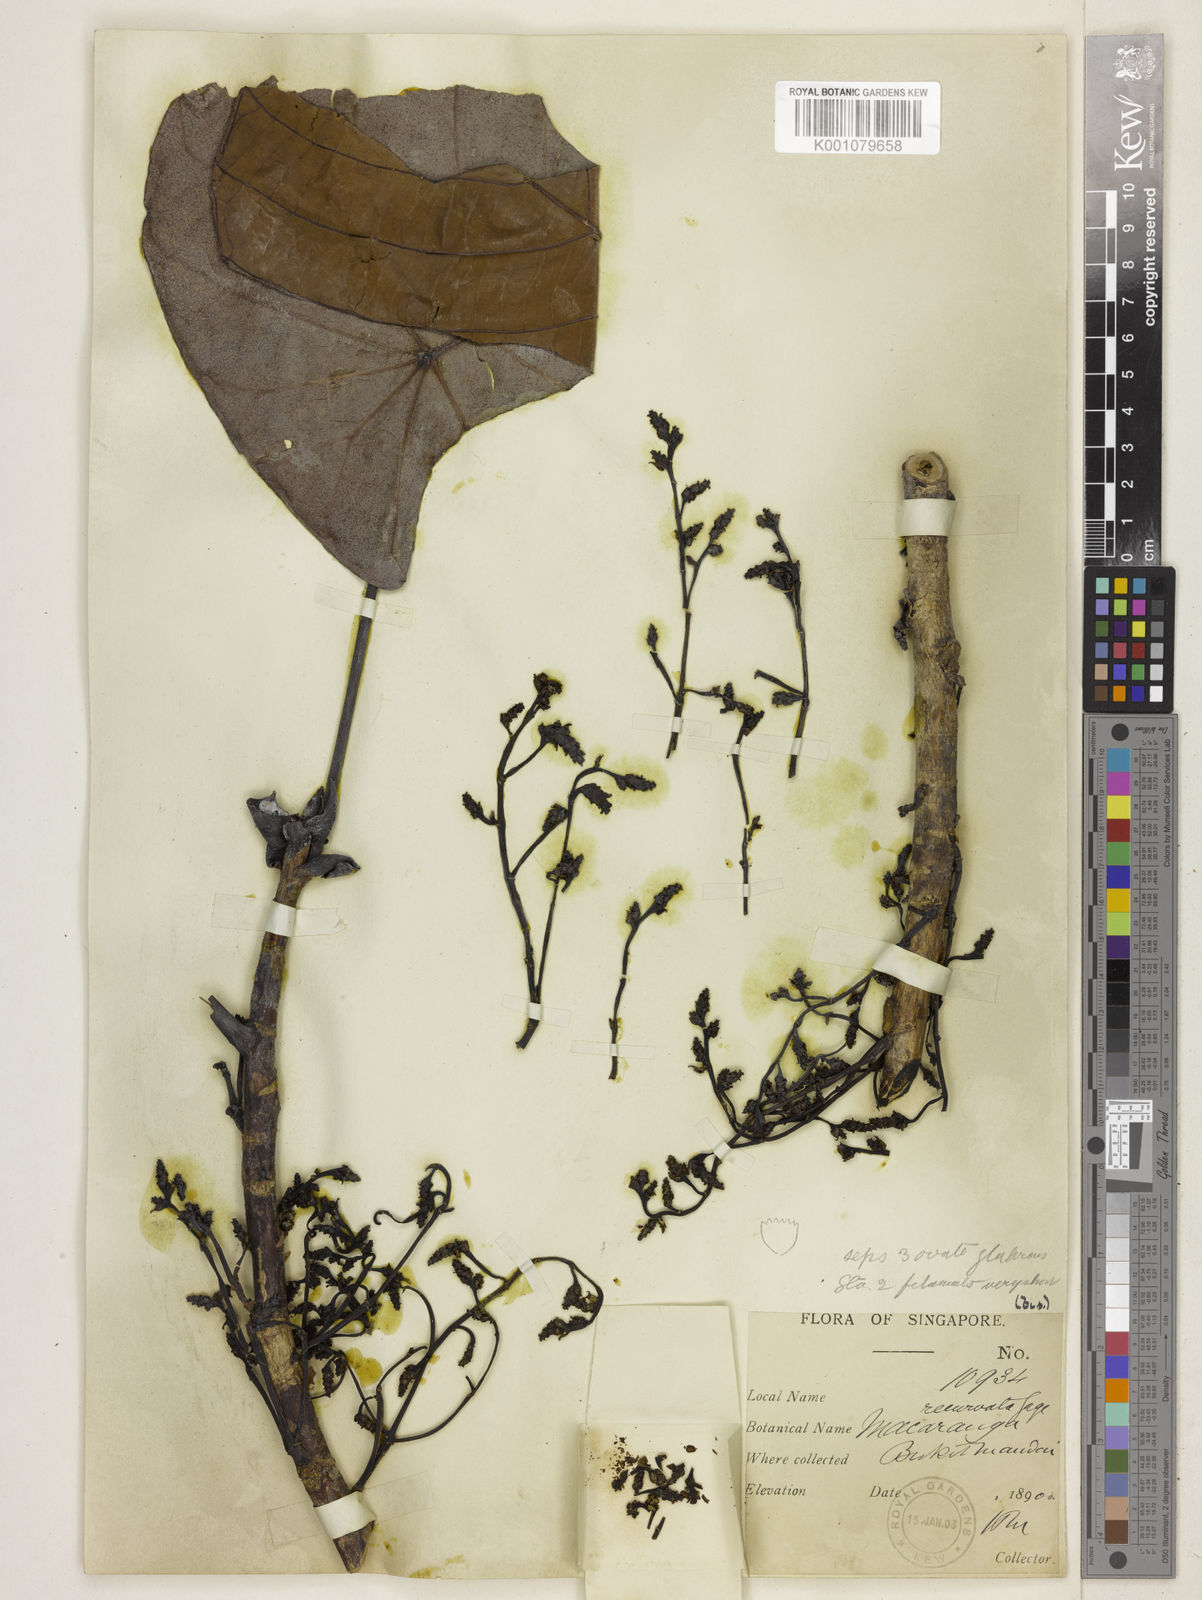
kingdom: Plantae
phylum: Tracheophyta
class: Magnoliopsida
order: Malpighiales
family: Euphorbiaceae
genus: Macaranga
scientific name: Macaranga recurvata
